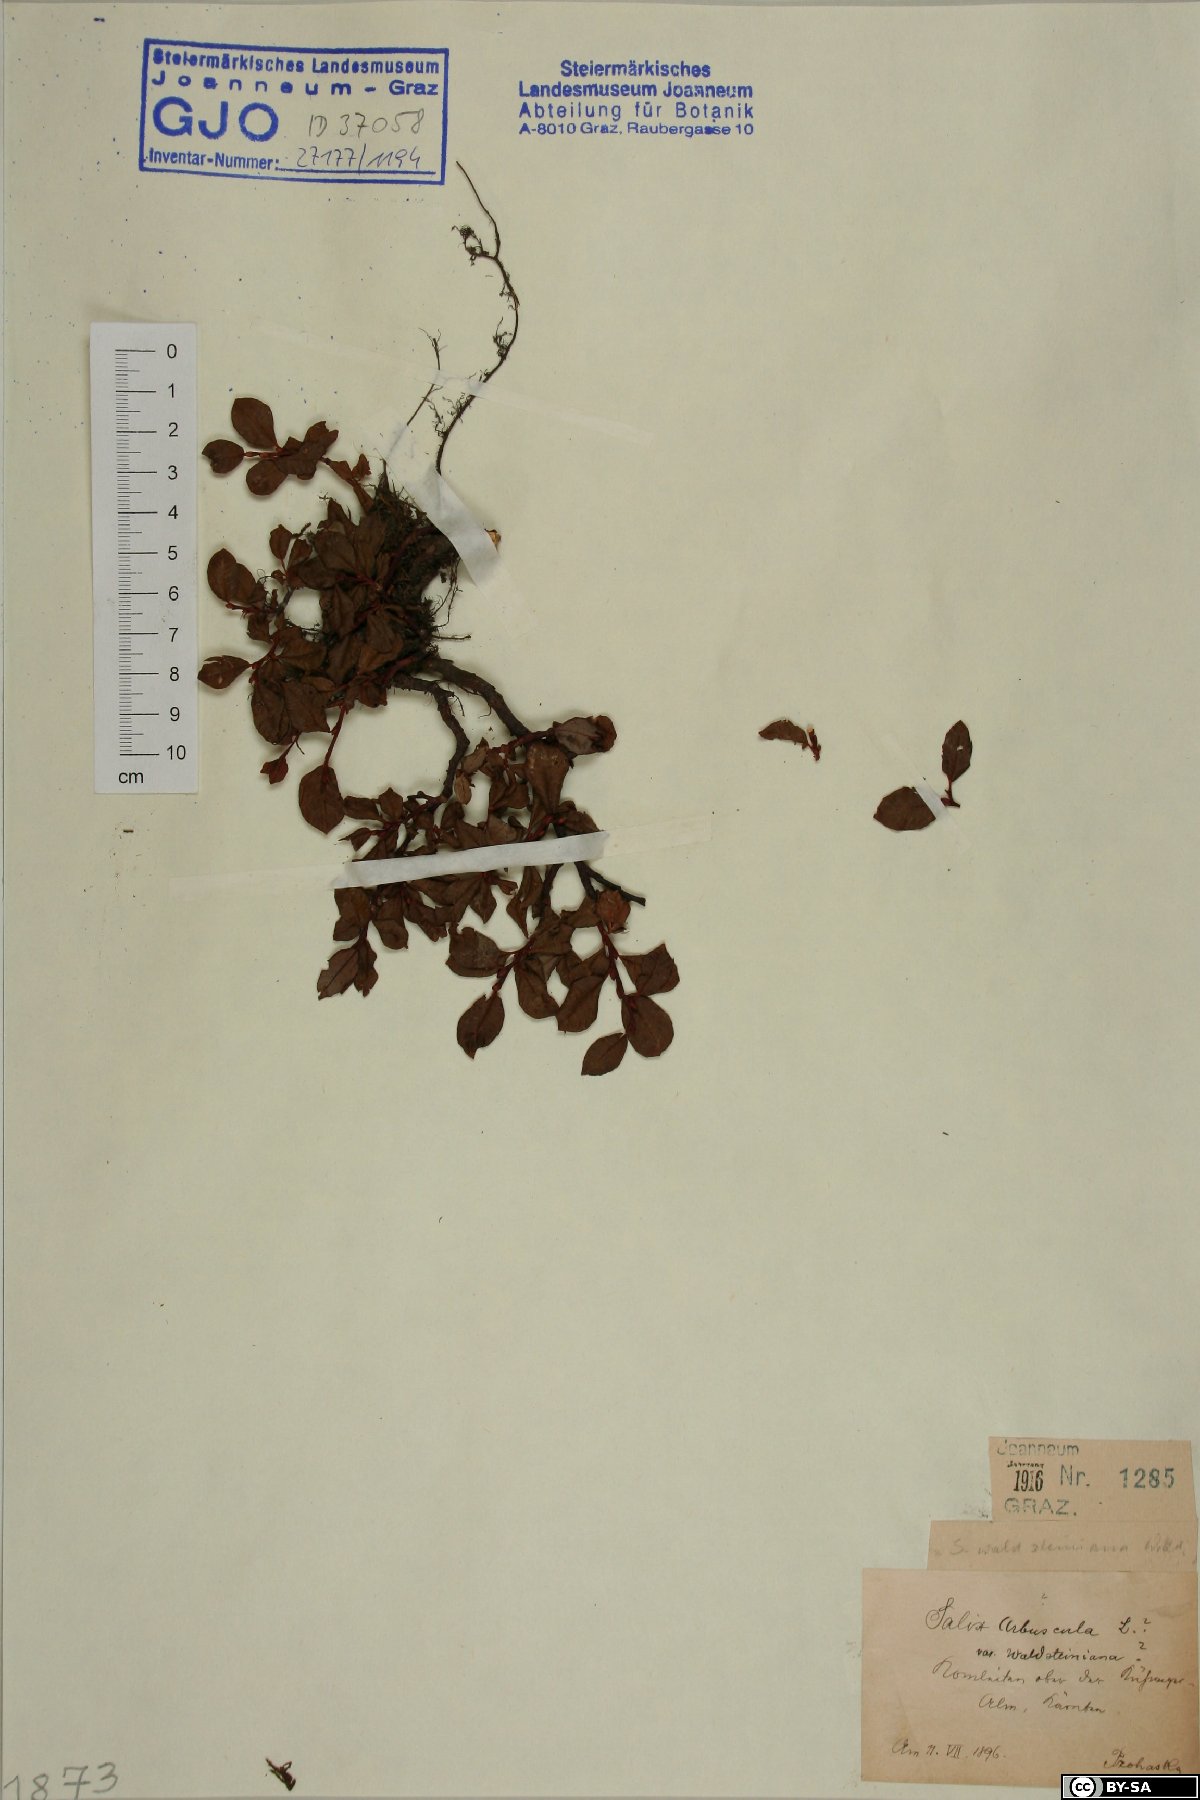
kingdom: Plantae
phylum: Tracheophyta
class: Magnoliopsida
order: Malpighiales
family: Salicaceae
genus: Salix
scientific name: Salix waldsteiniana
